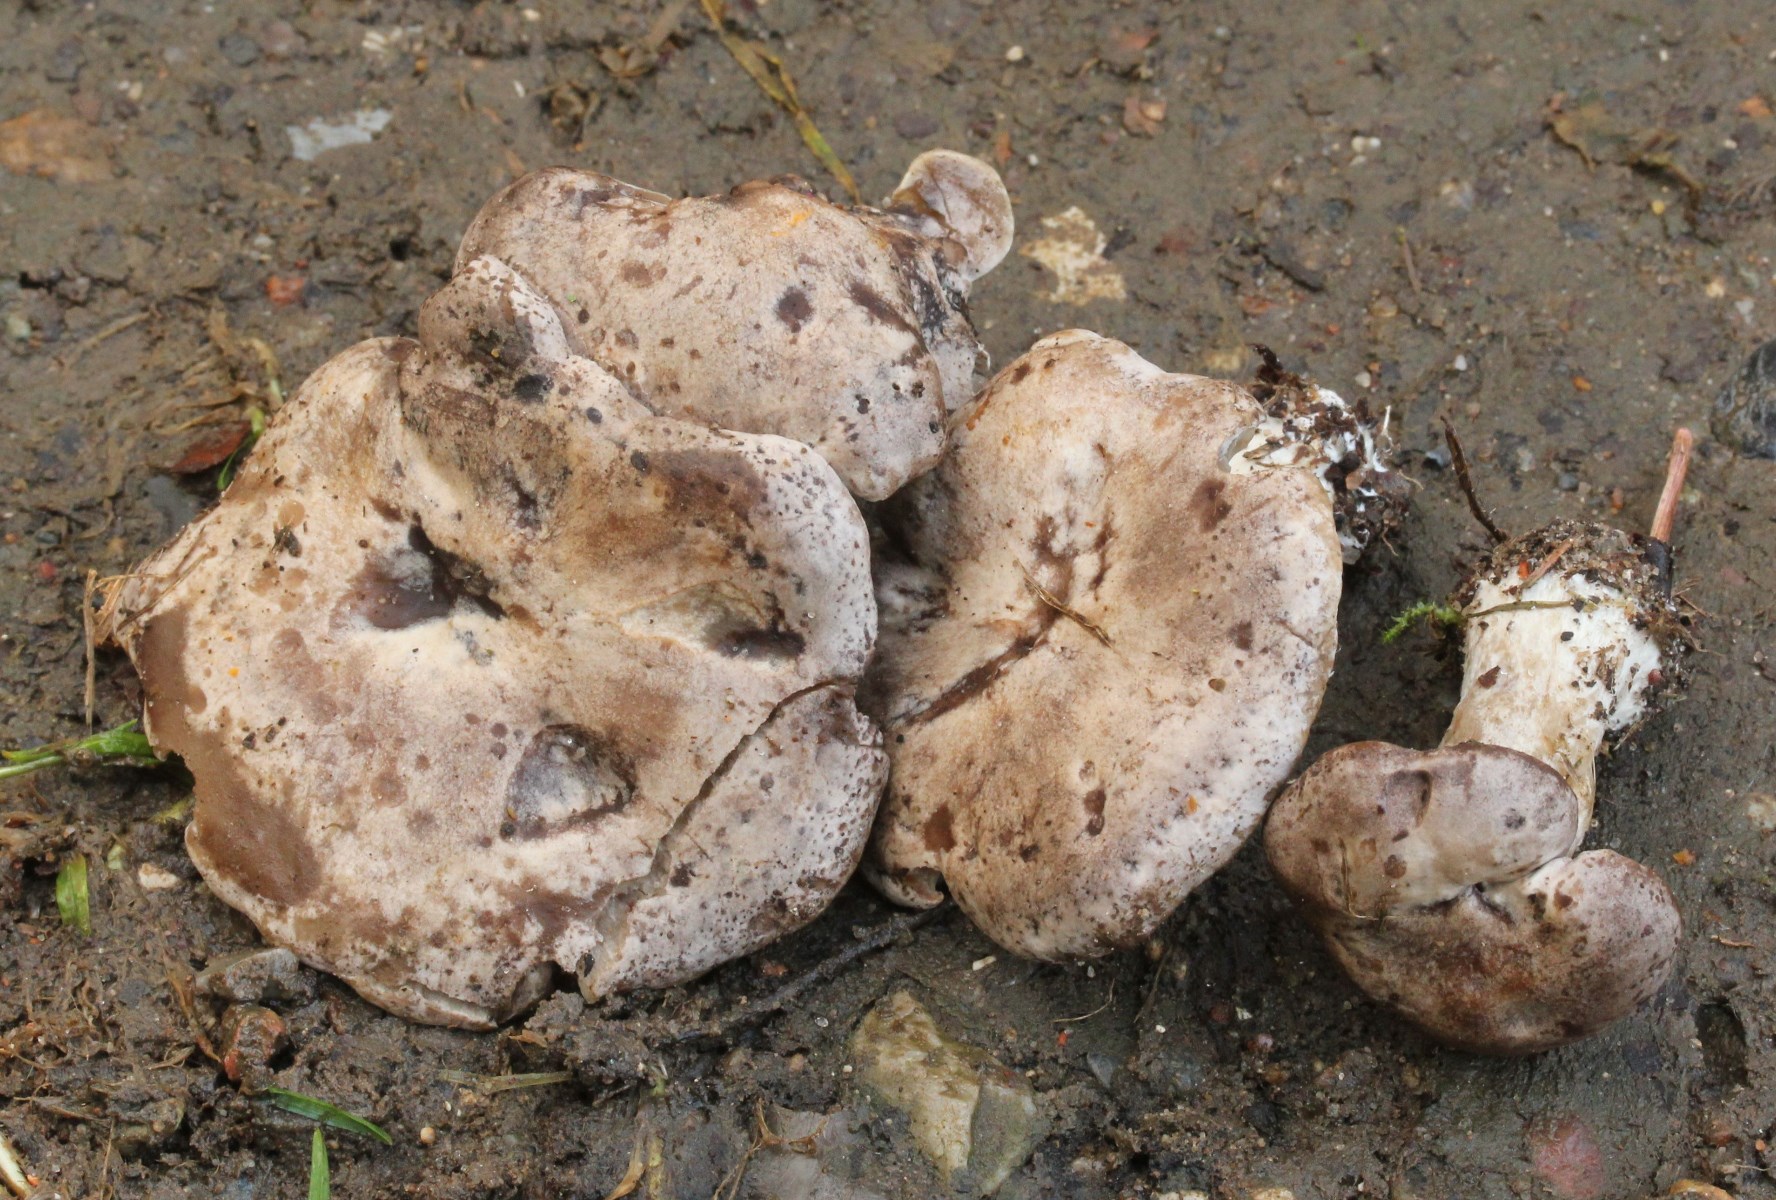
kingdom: Fungi
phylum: Basidiomycota
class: Agaricomycetes
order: Agaricales
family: Tricholomataceae
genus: Lulesia
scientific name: Lulesia
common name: sortnende troldhat
